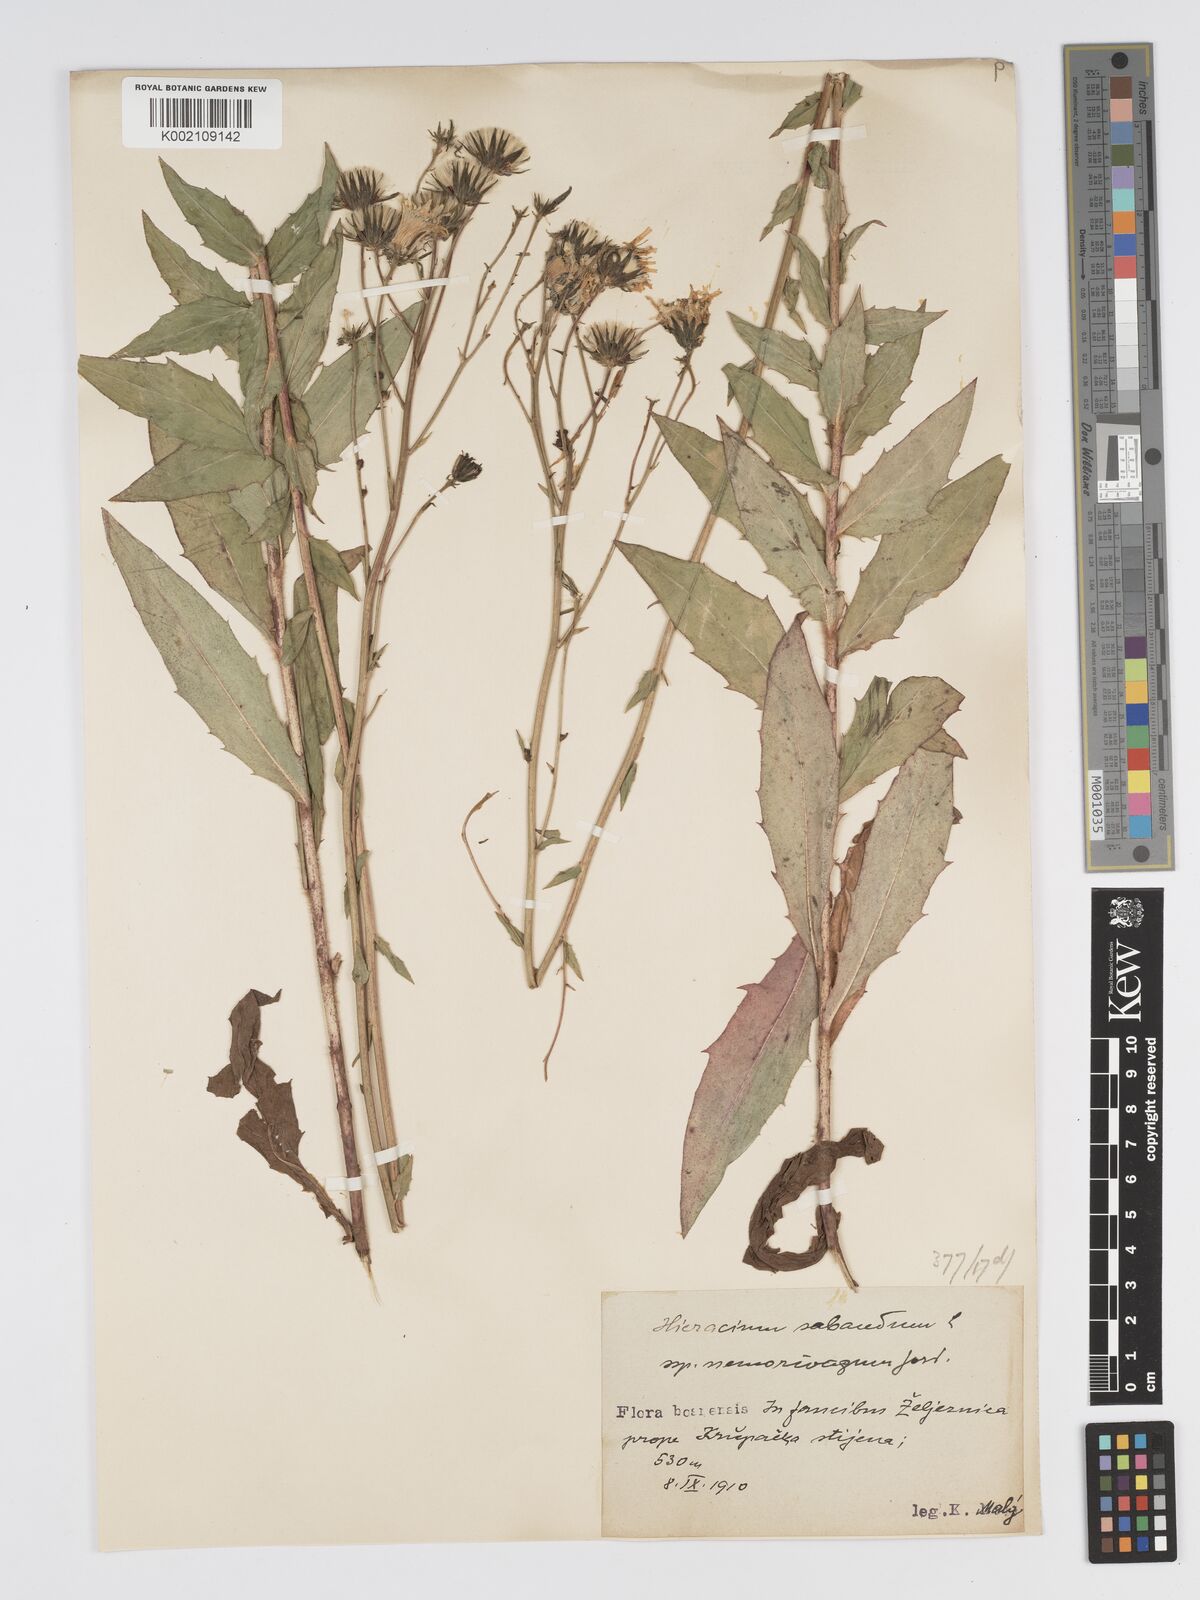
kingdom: Plantae
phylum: Tracheophyta
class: Magnoliopsida
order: Asterales
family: Asteraceae
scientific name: Asteraceae
